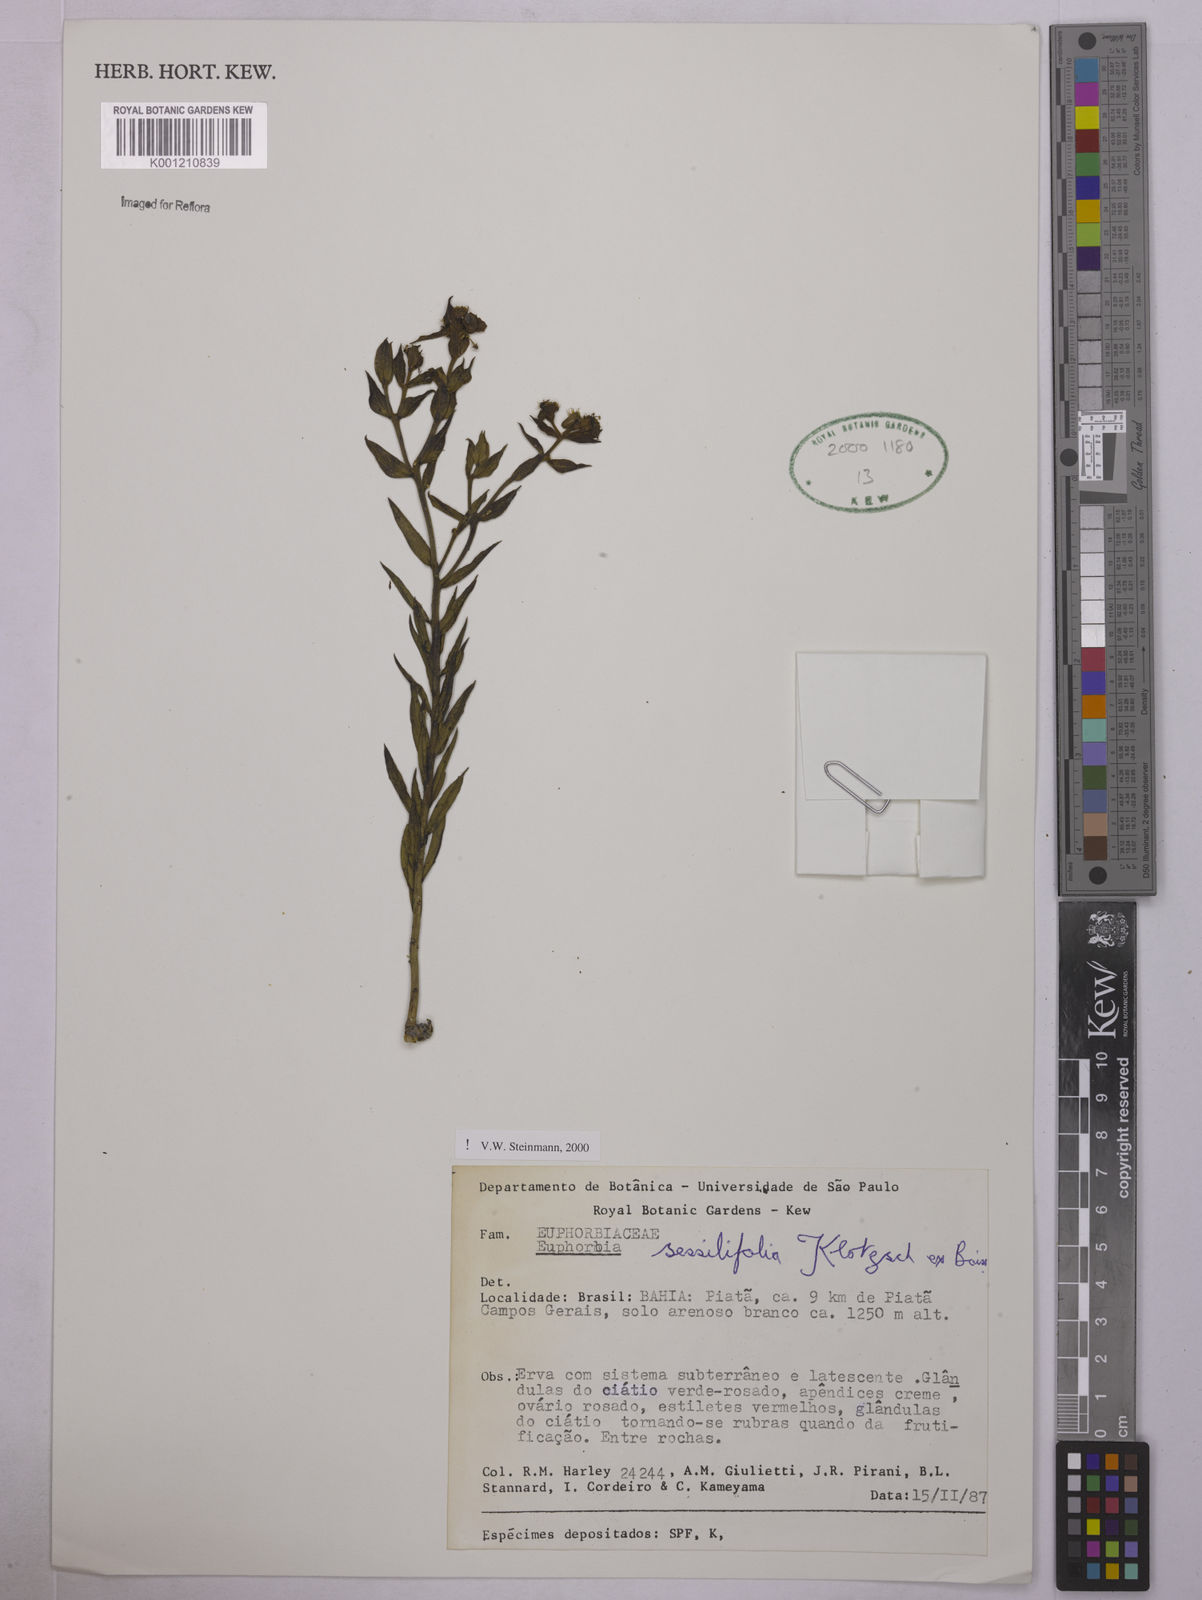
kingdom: Plantae
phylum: Tracheophyta
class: Magnoliopsida
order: Malpighiales
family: Euphorbiaceae
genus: Euphorbia
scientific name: Euphorbia sessilifolia
